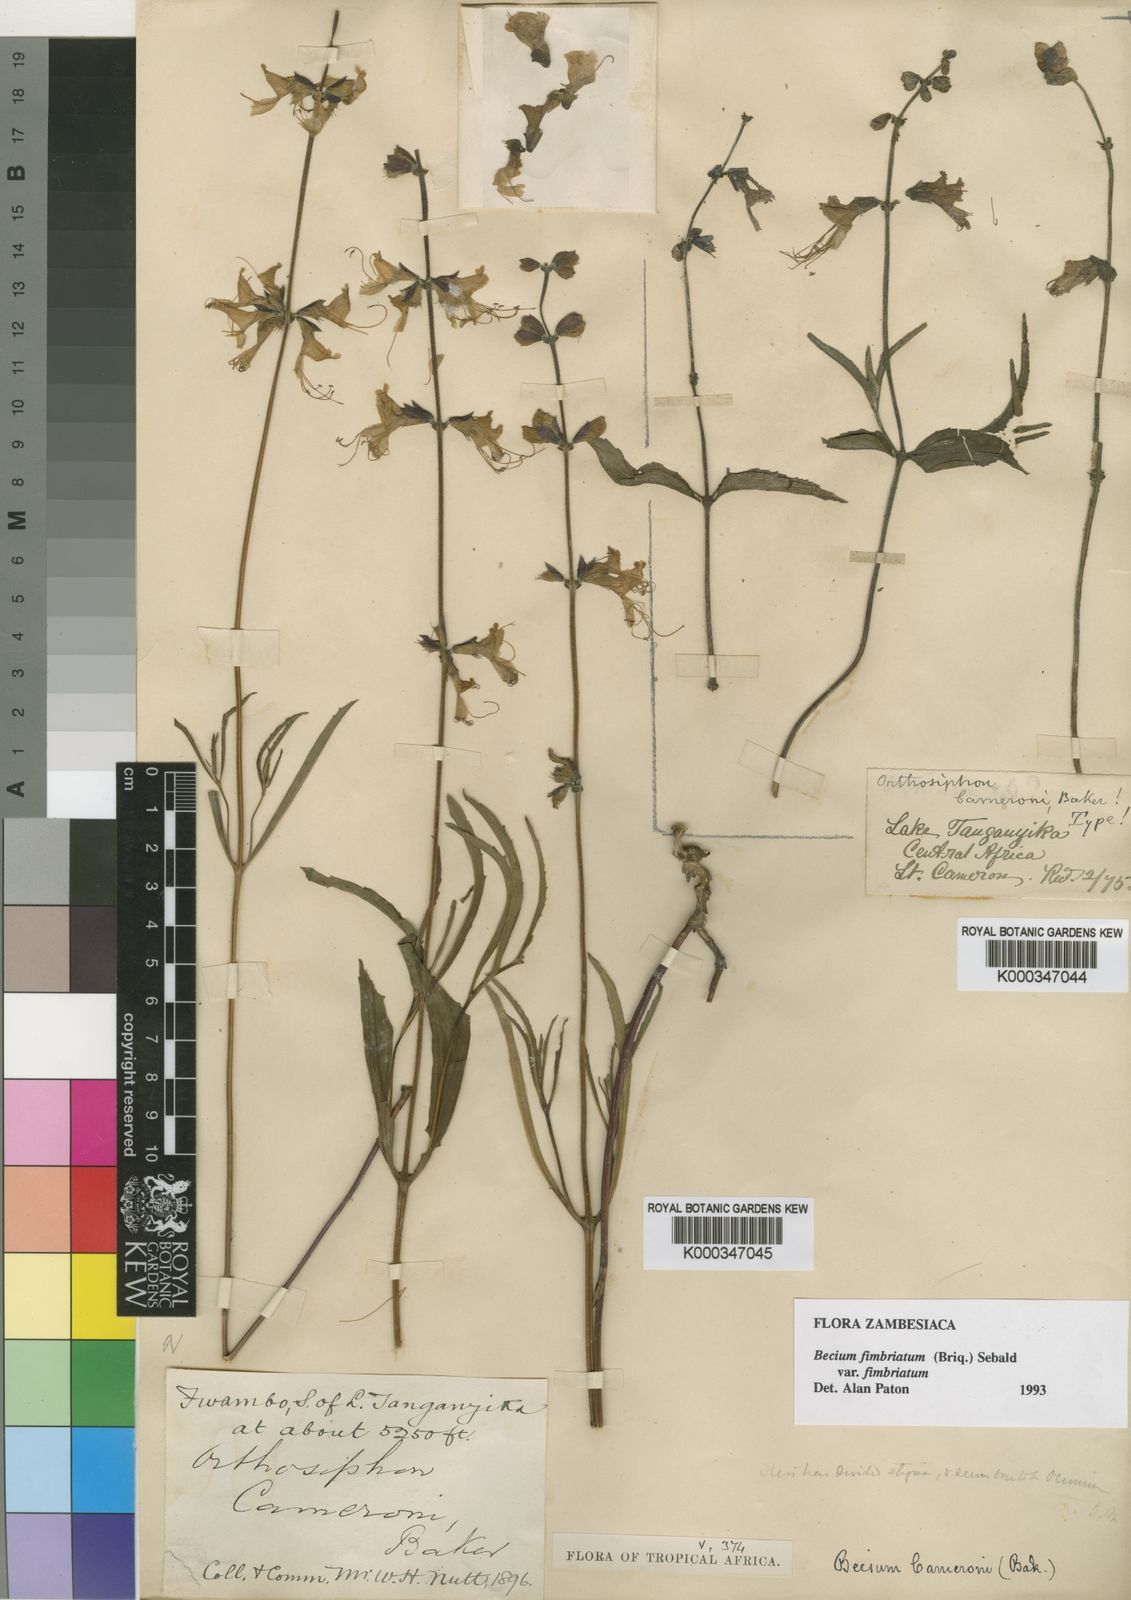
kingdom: Plantae
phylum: Tracheophyta
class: Magnoliopsida
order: Lamiales
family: Lamiaceae
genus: Ocimum
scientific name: Ocimum fimbriatum
